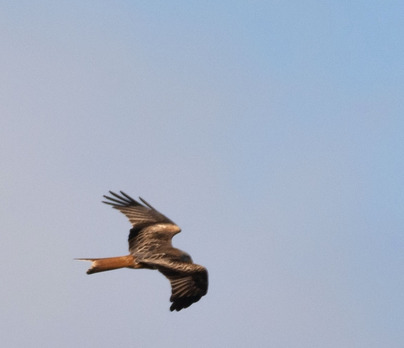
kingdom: Animalia
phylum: Chordata
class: Aves
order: Accipitriformes
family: Accipitridae
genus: Milvus
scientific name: Milvus milvus
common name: Rød glente
